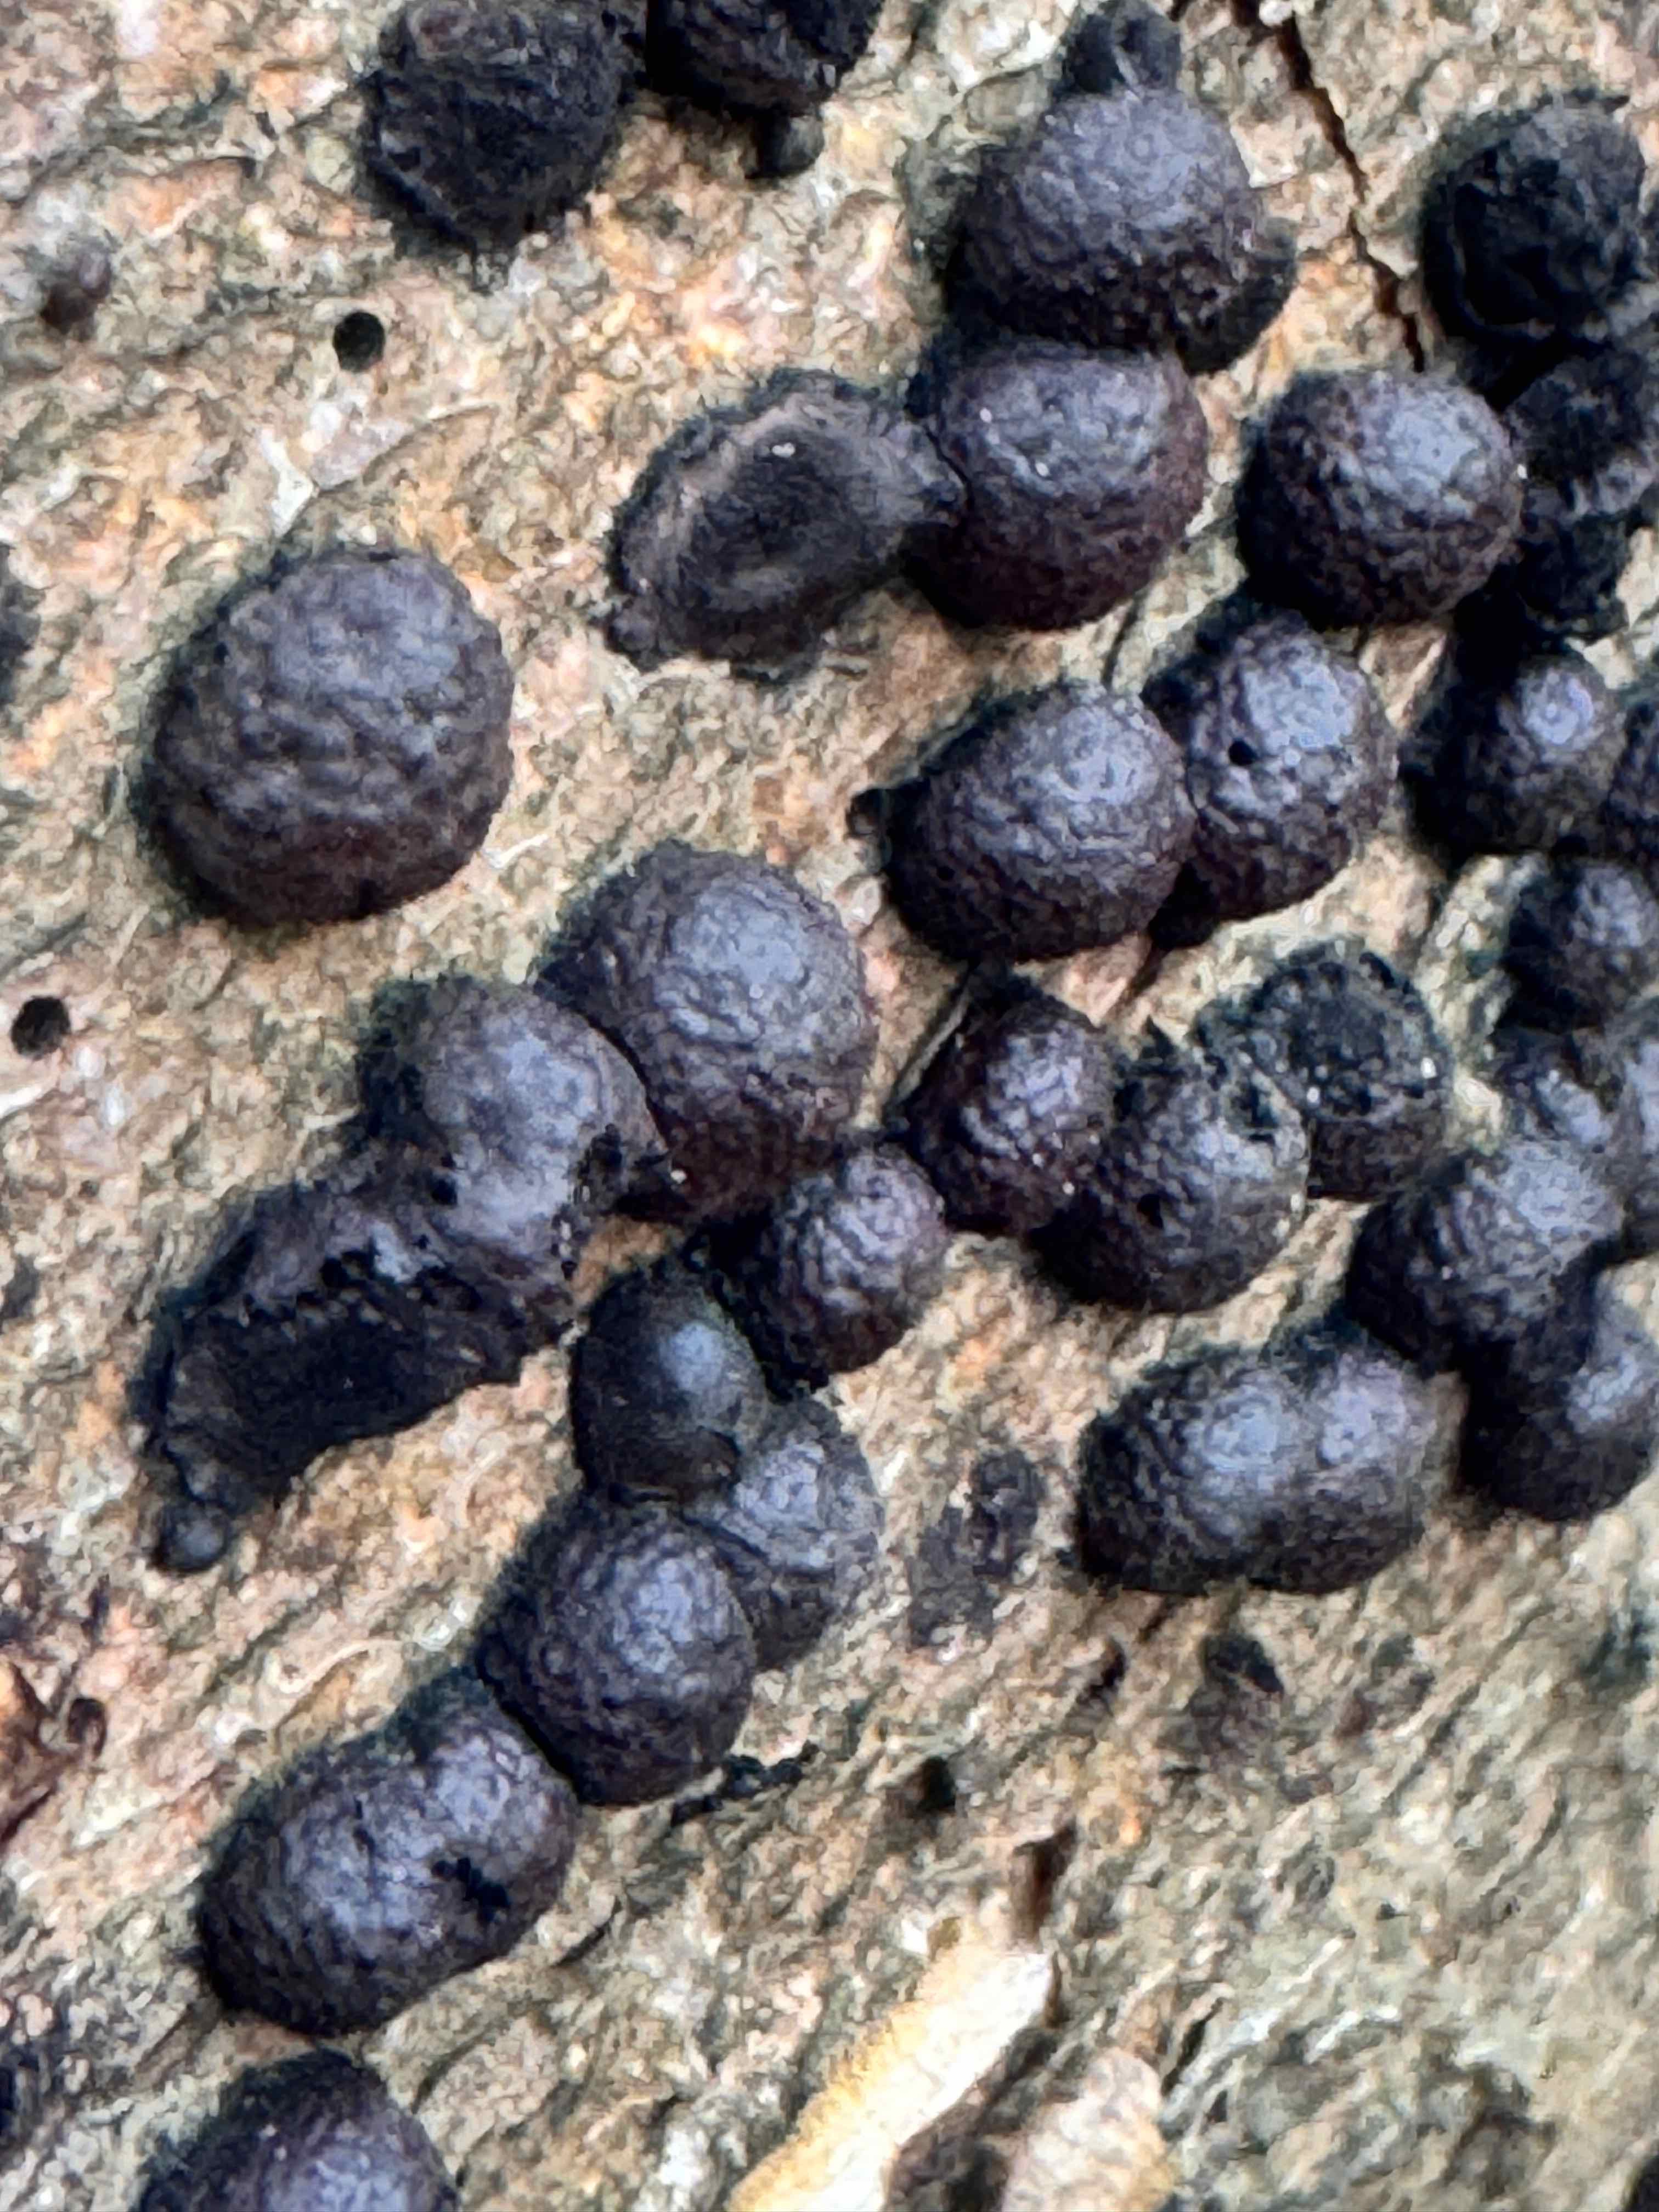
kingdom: Fungi
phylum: Ascomycota
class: Sordariomycetes
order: Xylariales
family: Hypoxylaceae
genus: Hypoxylon
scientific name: Hypoxylon fragiforme
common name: kuljordbær
